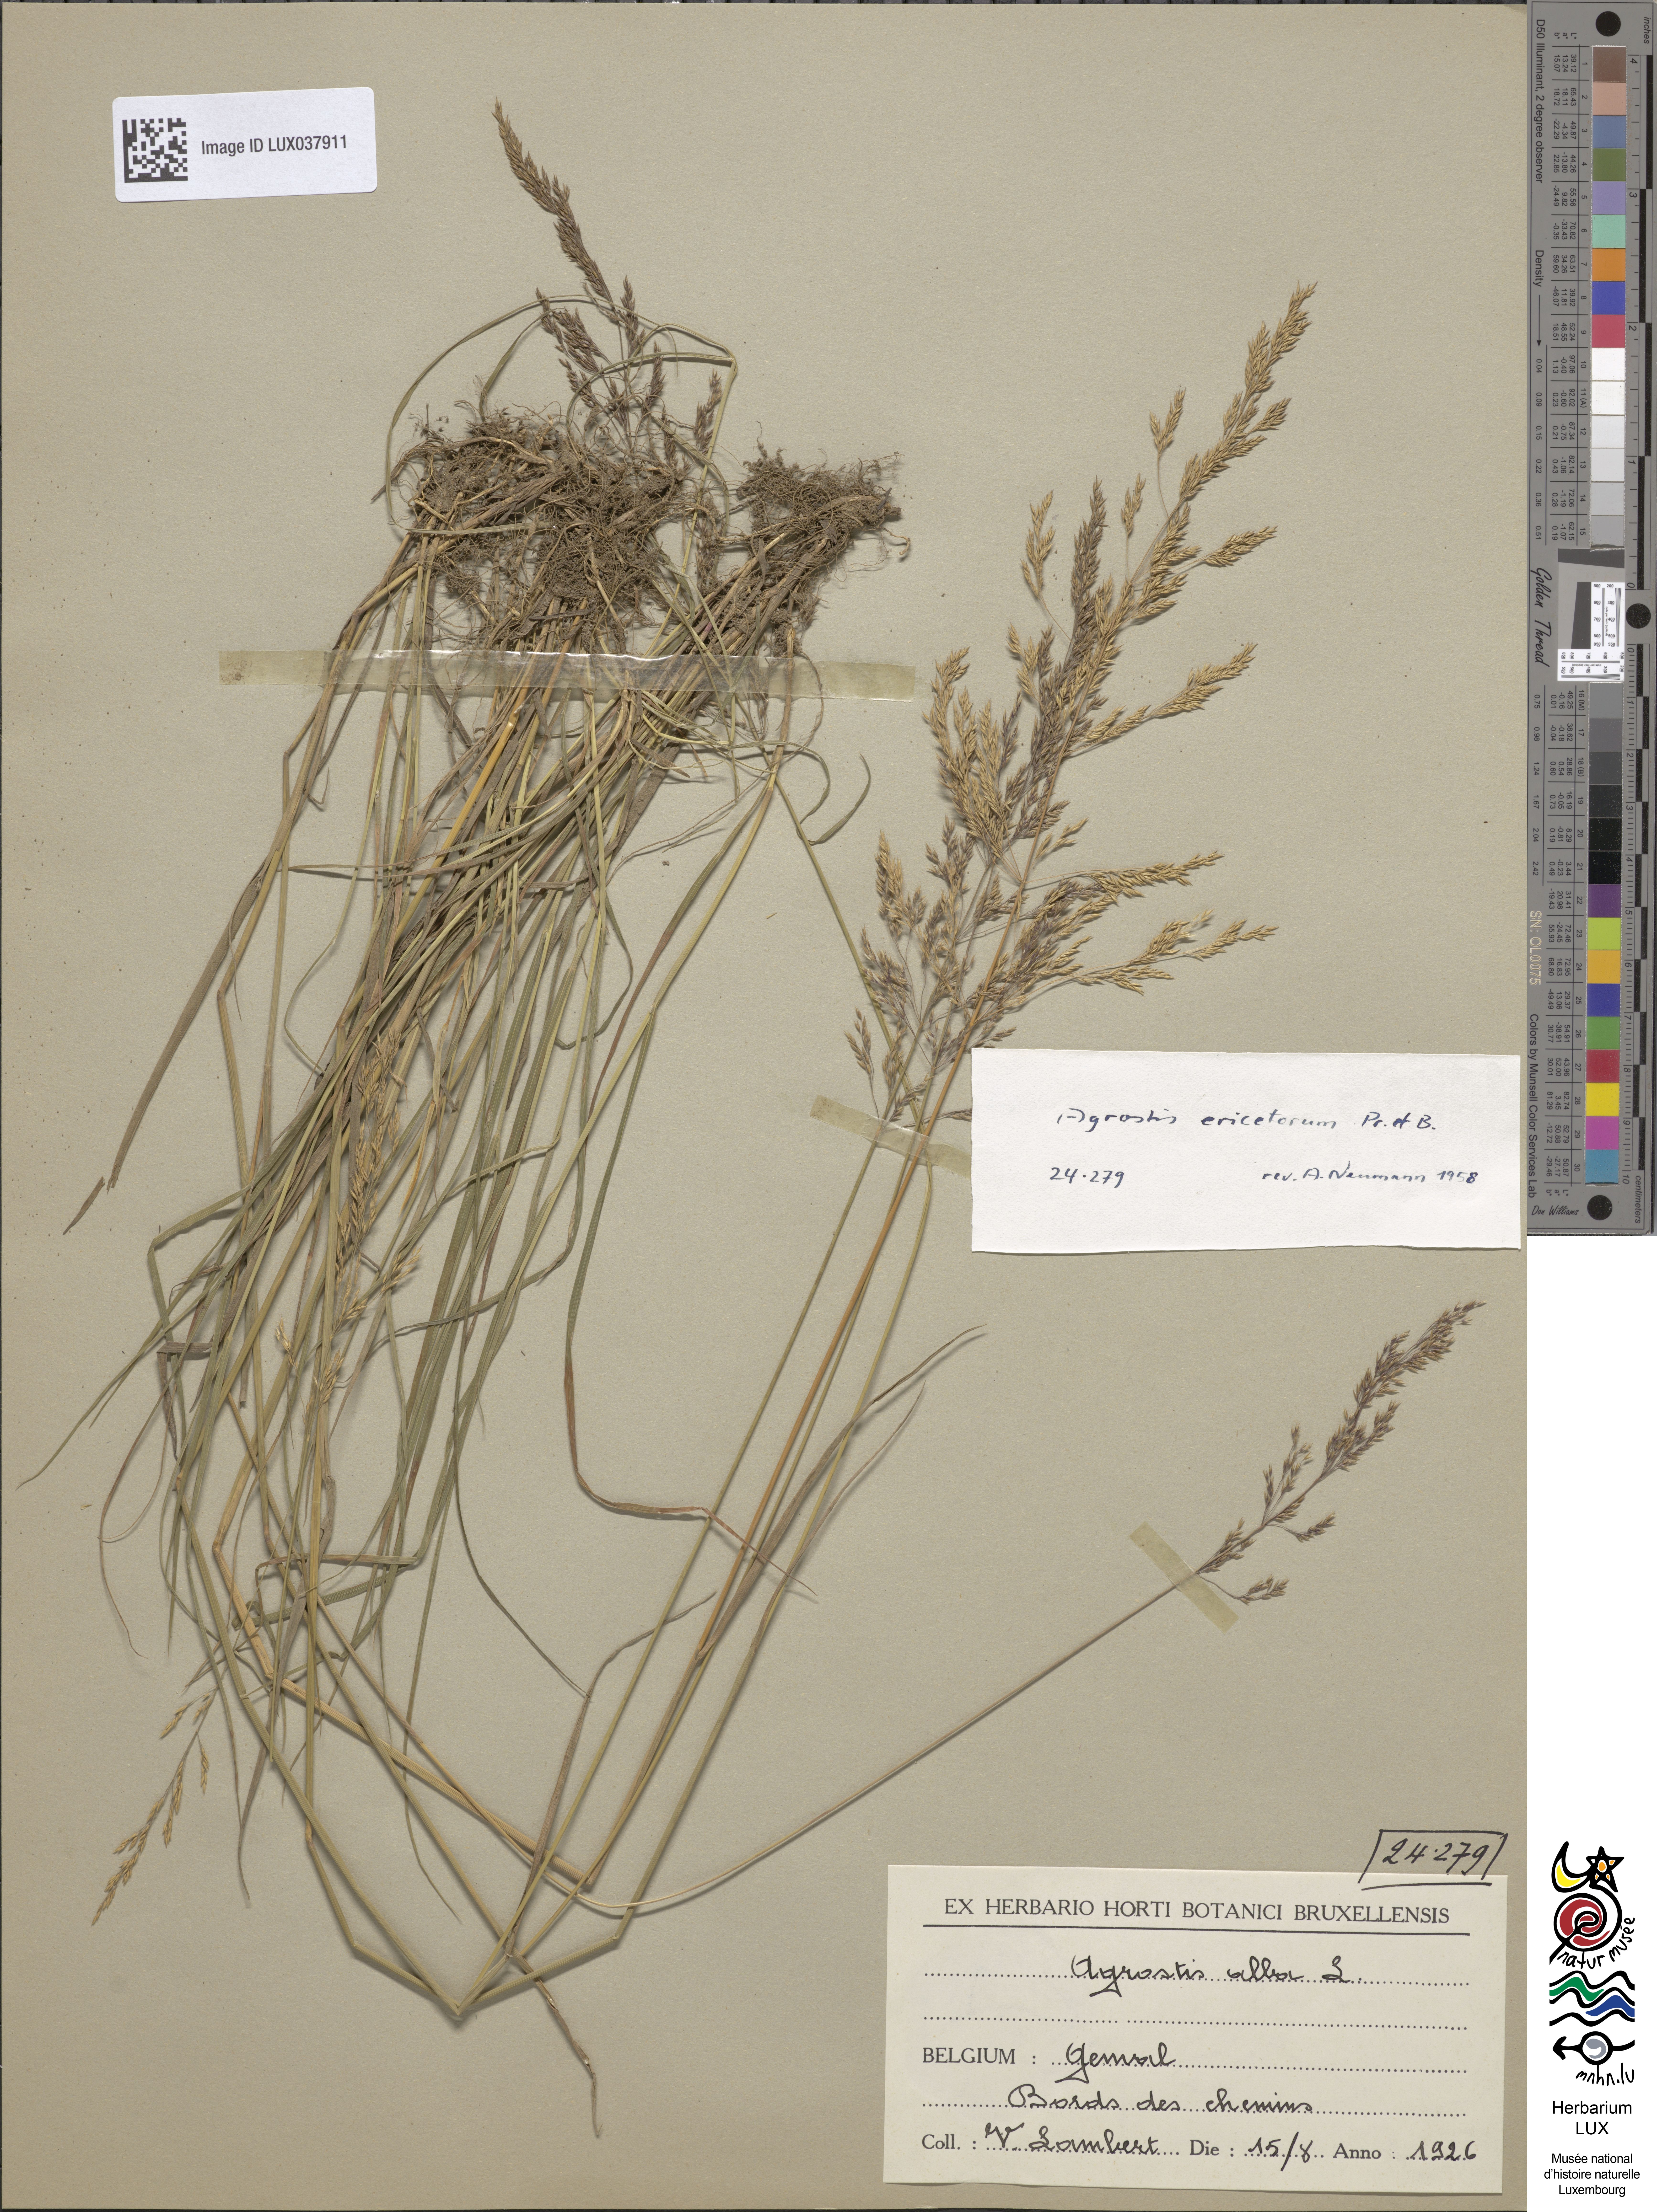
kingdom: Plantae
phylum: Tracheophyta
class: Liliopsida
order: Poales
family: Poaceae
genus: Agrostis
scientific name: Agrostis vinealis
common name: Brown bent
